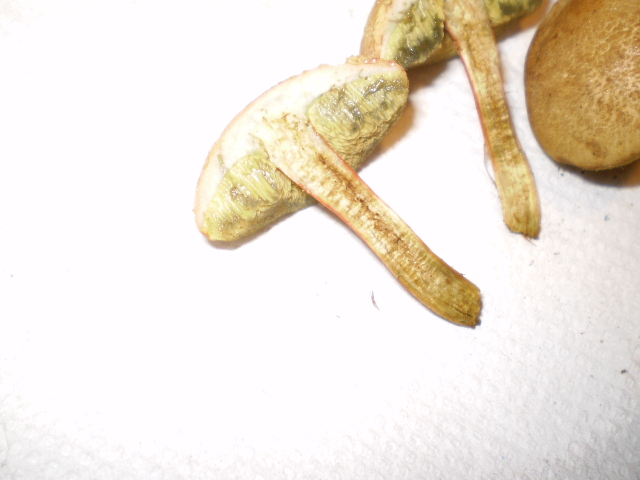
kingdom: Fungi
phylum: Basidiomycota
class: Agaricomycetes
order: Boletales
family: Boletaceae
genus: Xerocomellus
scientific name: Xerocomellus chrysenteron
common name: rødsprukken rørhat
